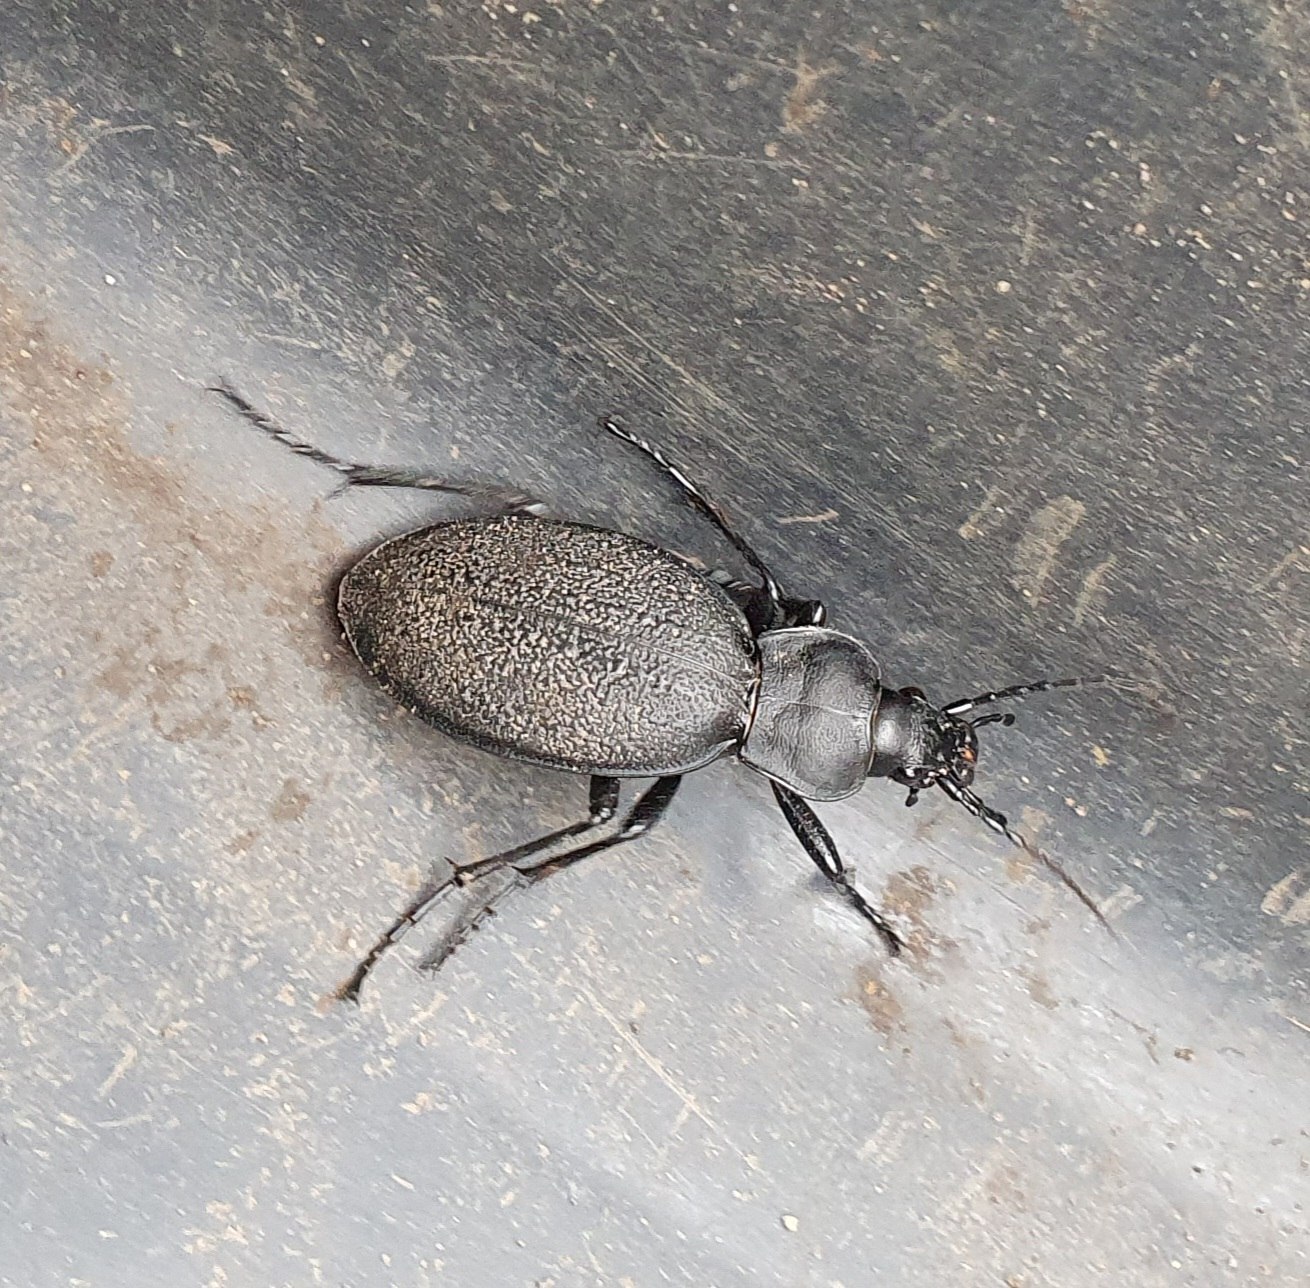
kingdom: Animalia
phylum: Arthropoda
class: Insecta
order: Coleoptera
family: Carabidae
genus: Carabus
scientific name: Carabus coriaceus
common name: Læderløber
